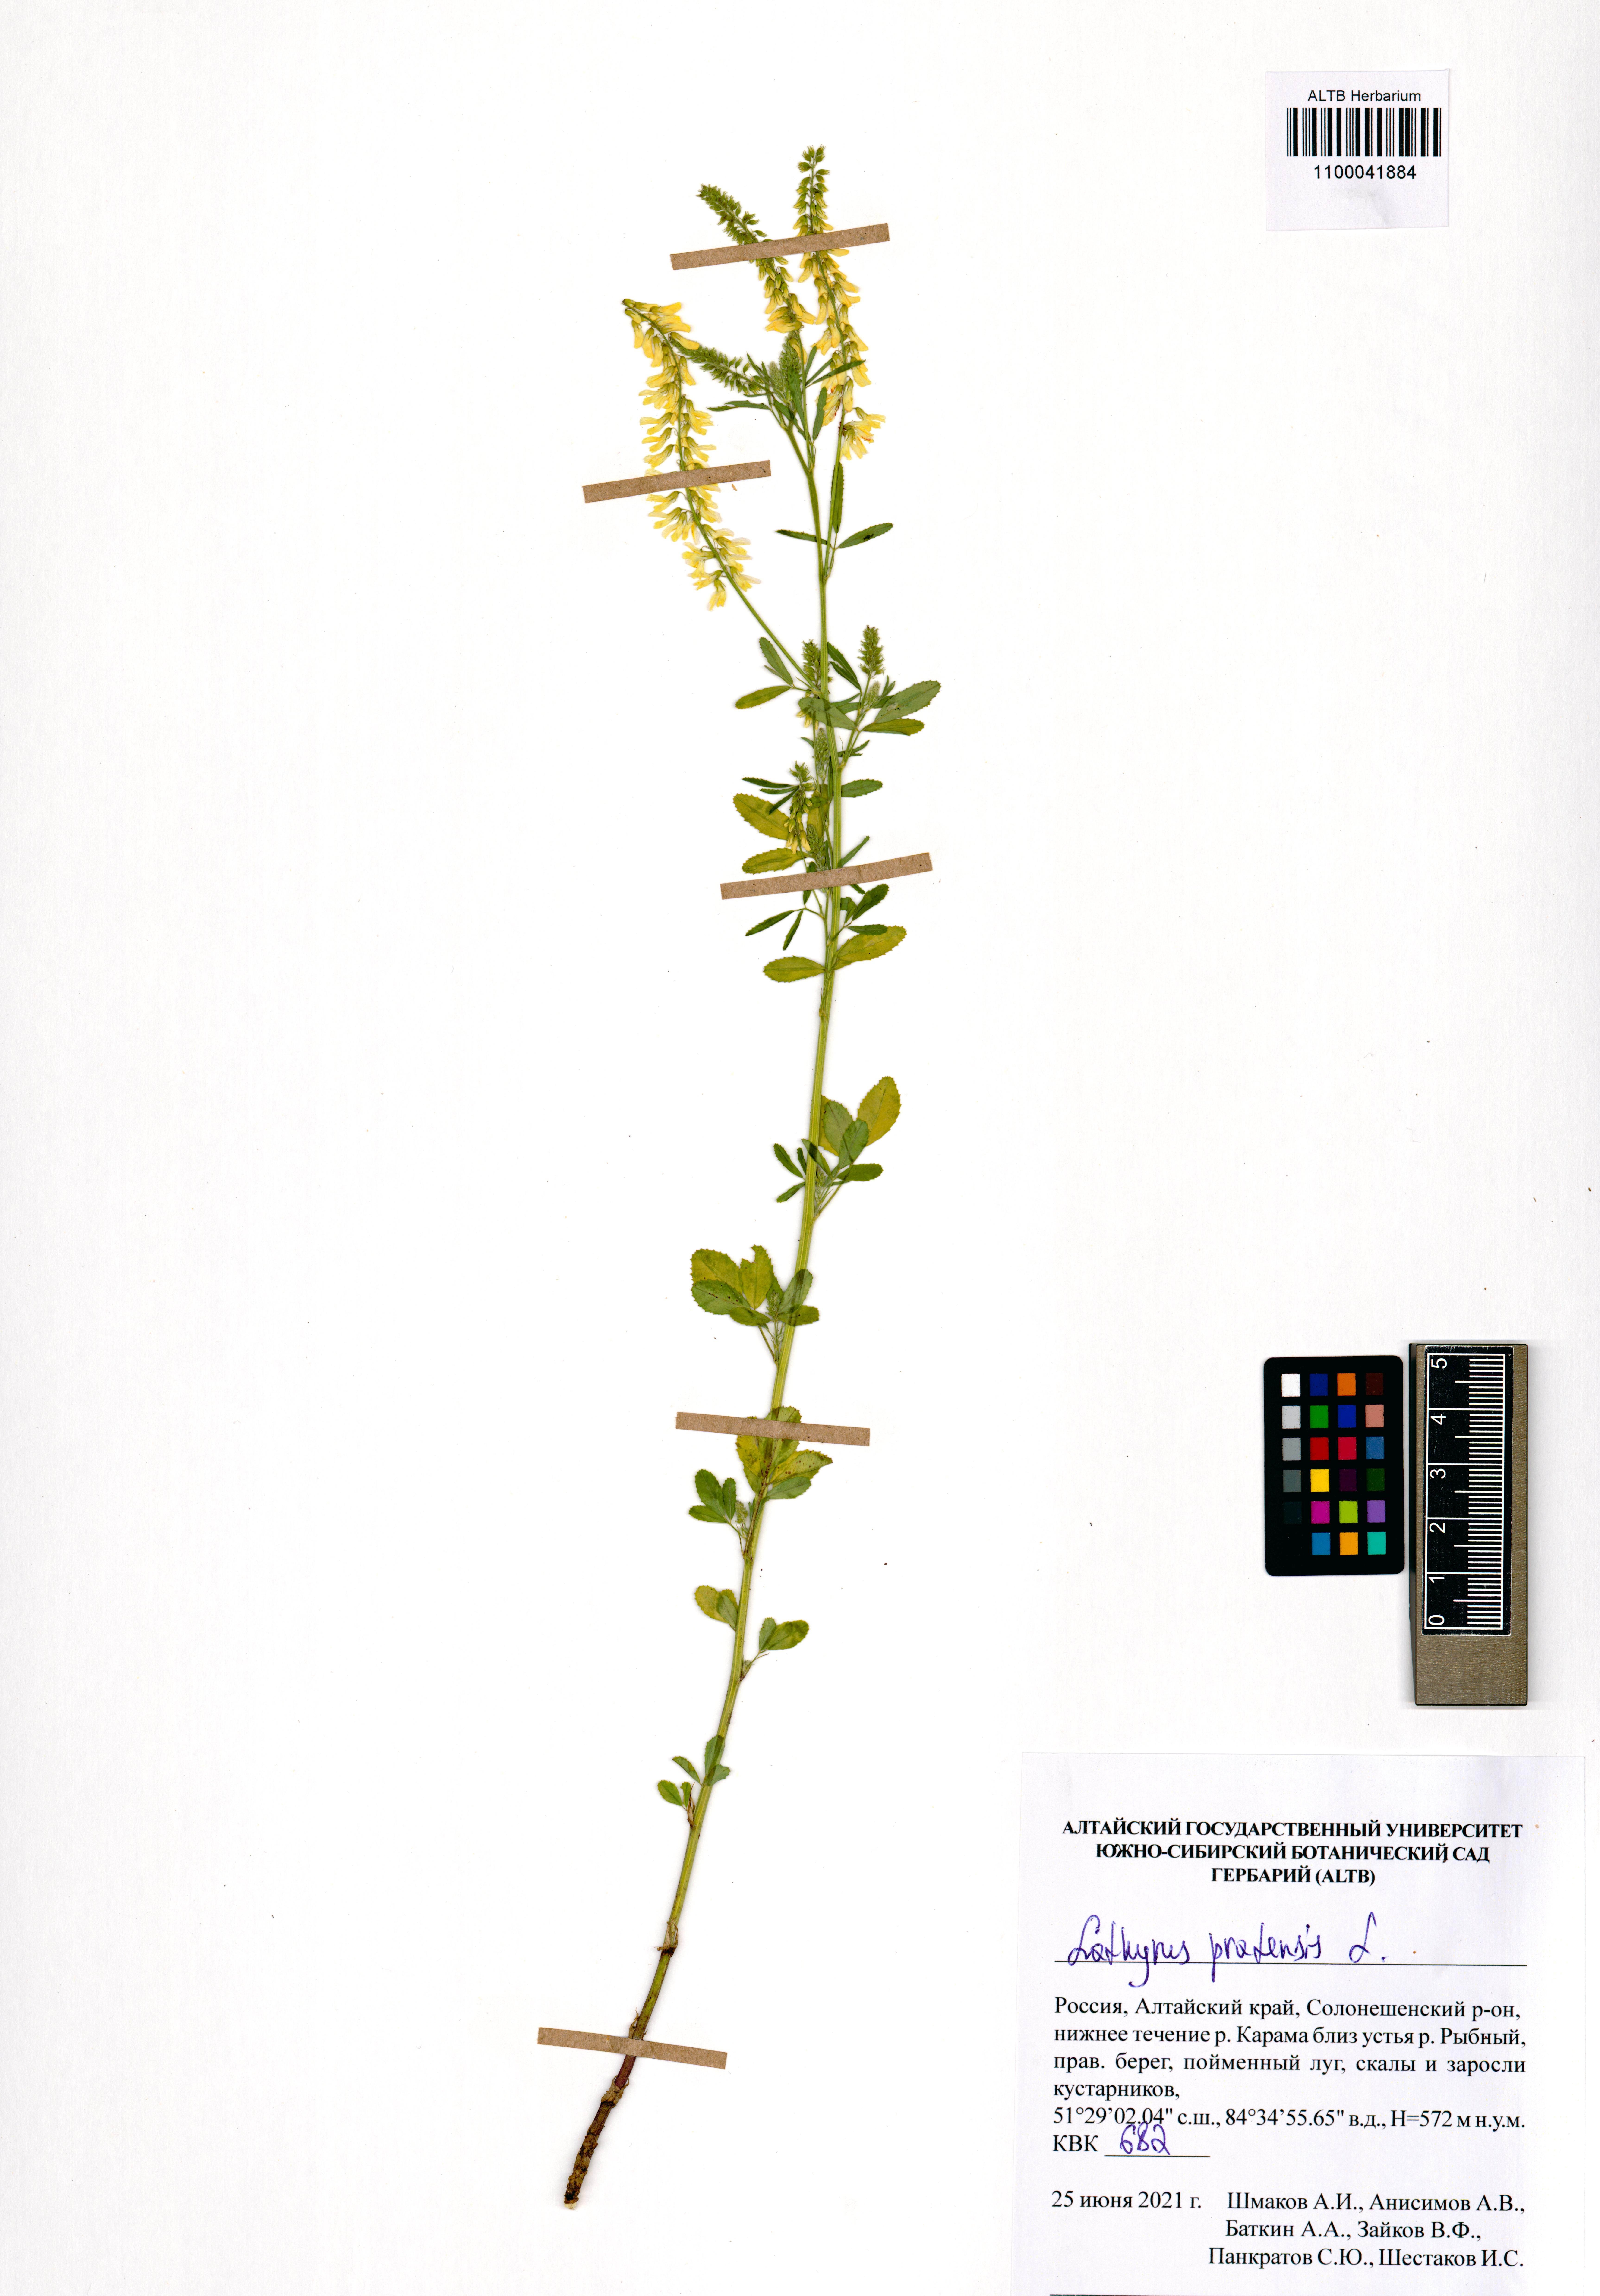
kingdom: Plantae
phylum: Tracheophyta
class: Magnoliopsida
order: Fabales
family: Fabaceae
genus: Lathyrus
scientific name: Lathyrus pratensis
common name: Meadow vetchling
